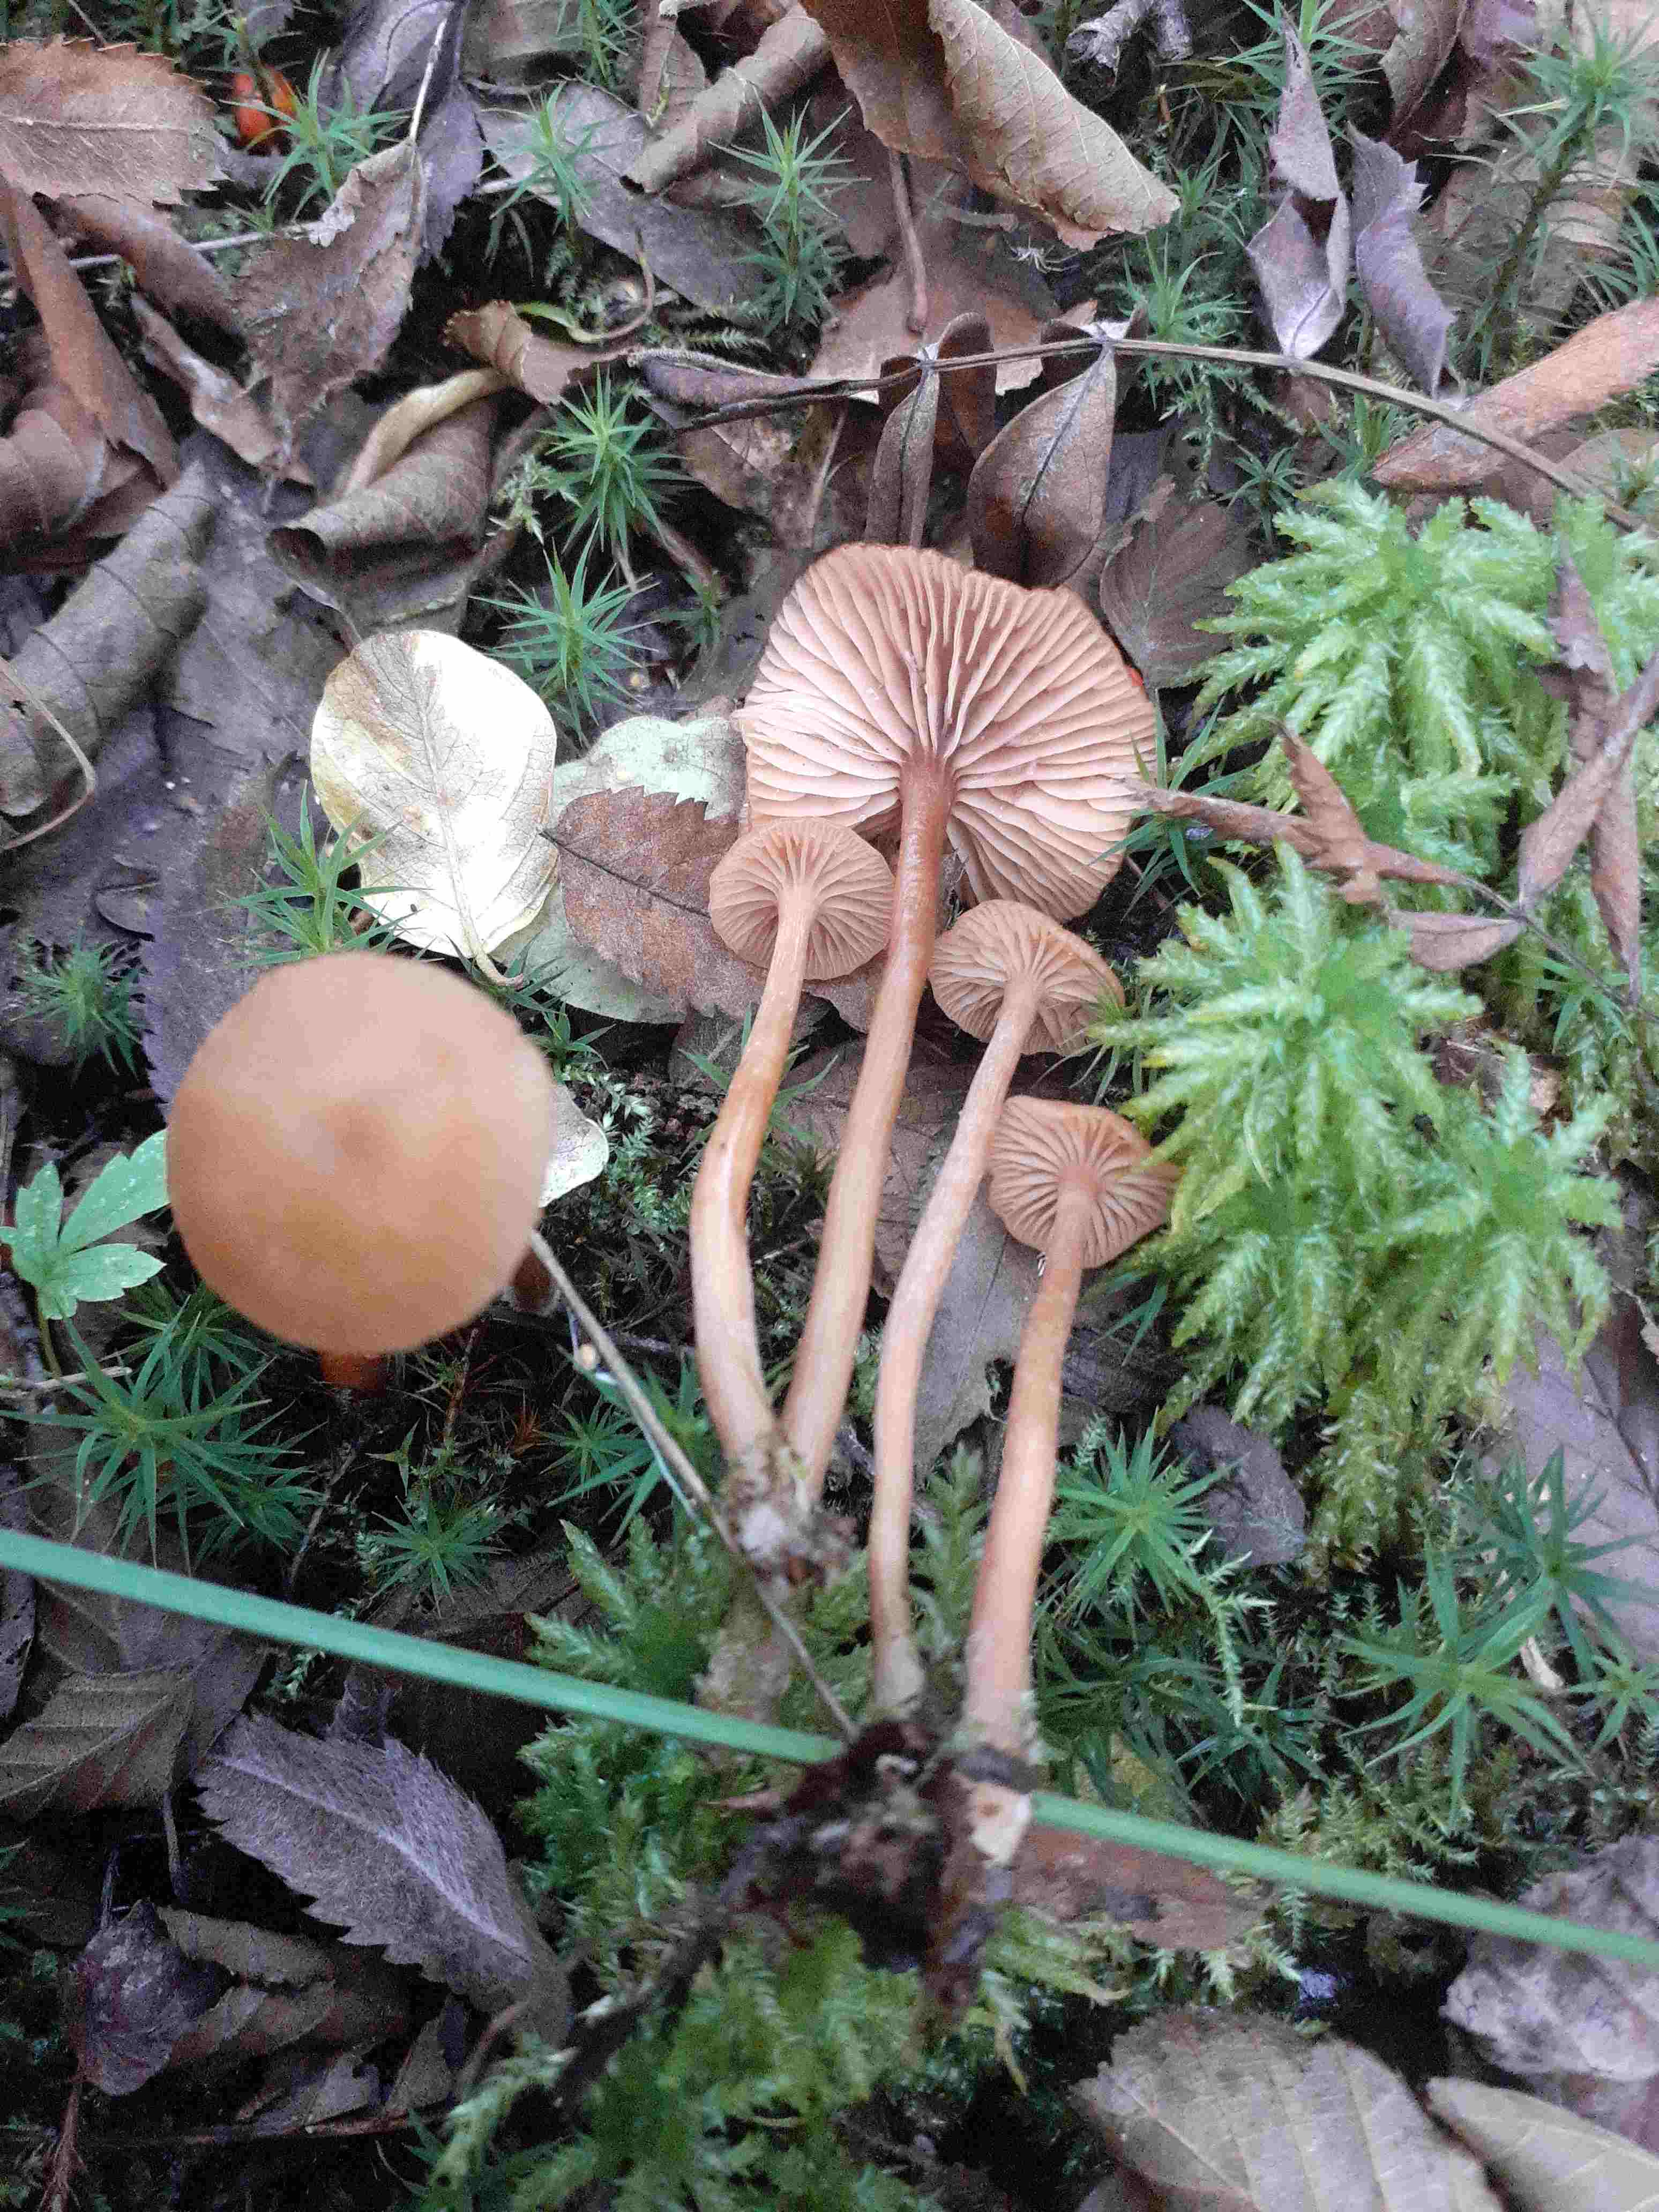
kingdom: Fungi
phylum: Basidiomycota
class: Agaricomycetes
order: Agaricales
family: Hydnangiaceae
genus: Laccaria
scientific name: Laccaria laccata
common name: rød ametysthat
